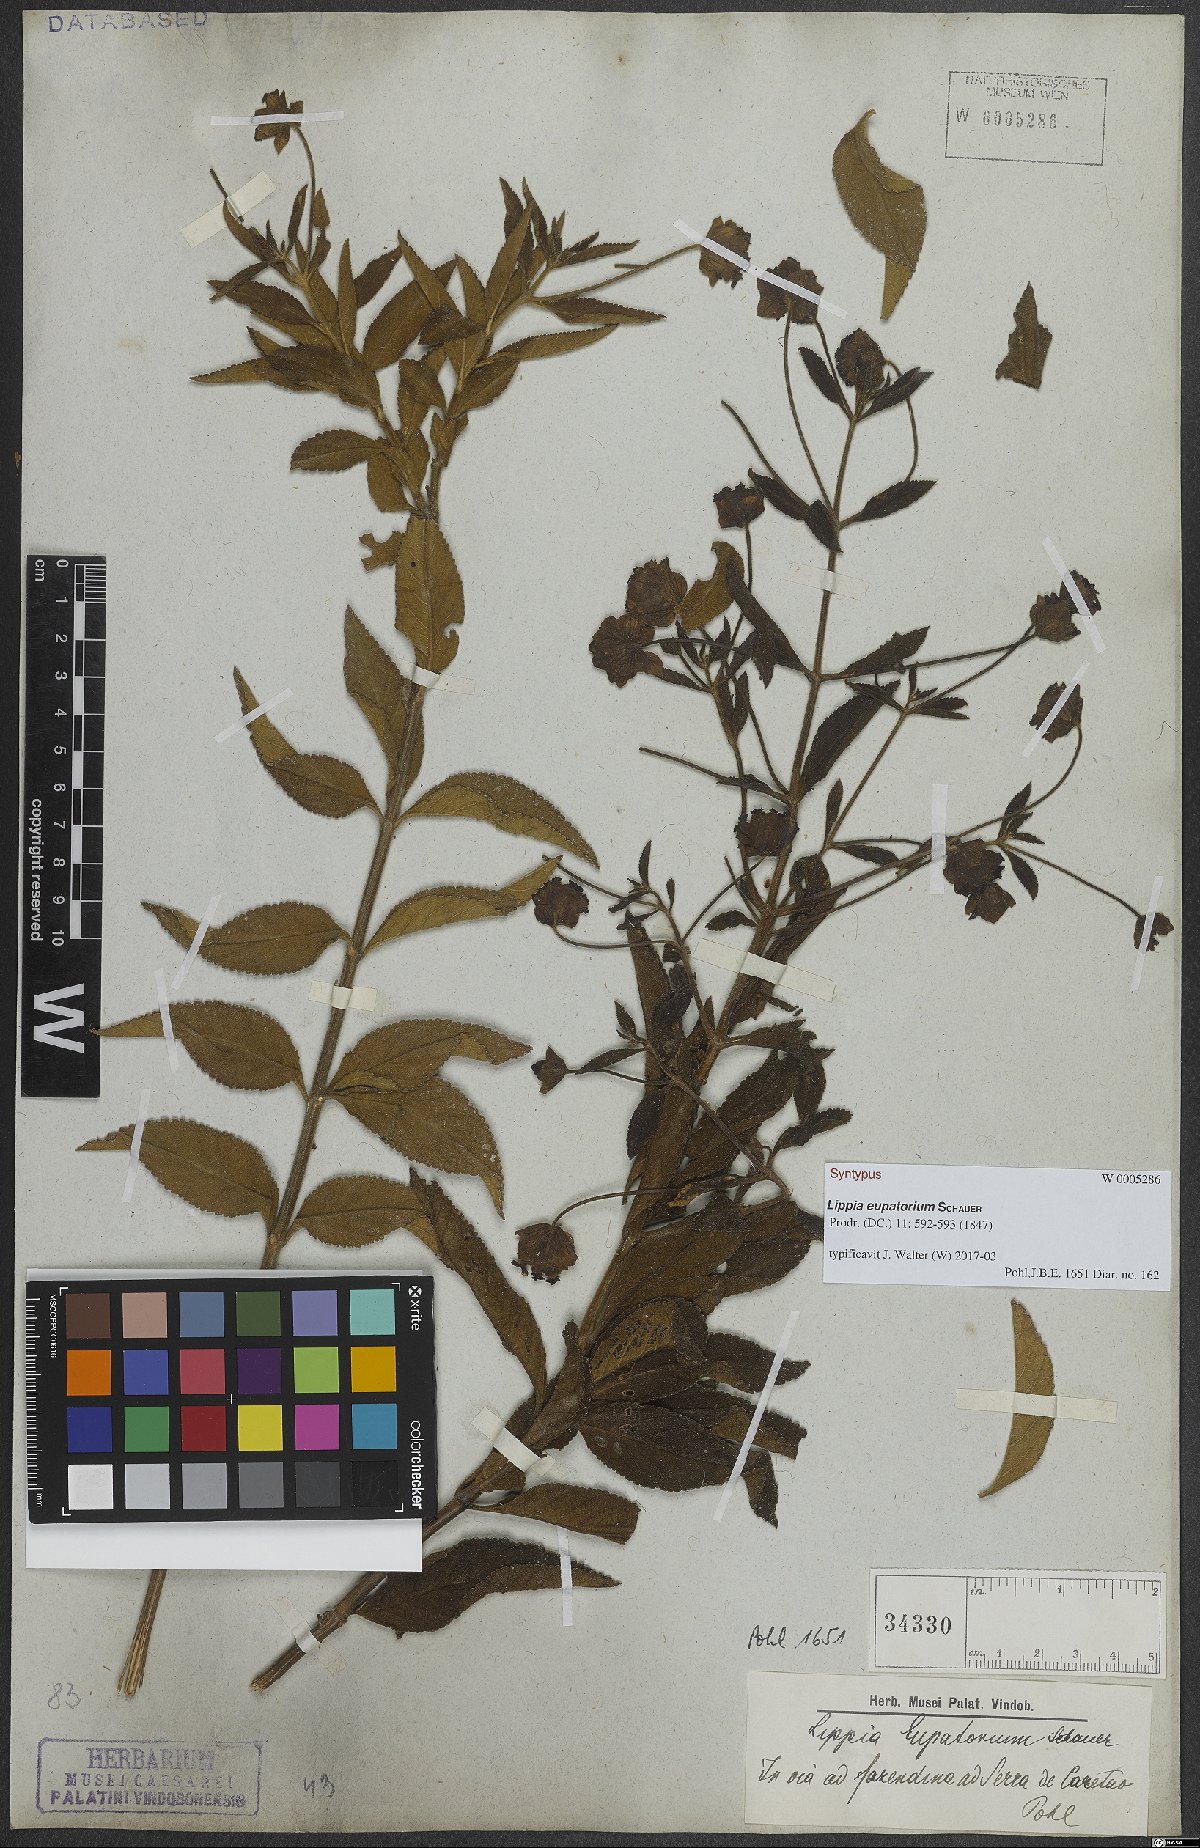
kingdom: Plantae
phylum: Tracheophyta
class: Magnoliopsida
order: Lamiales
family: Verbenaceae
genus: Lippia
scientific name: Lippia eupatorium
